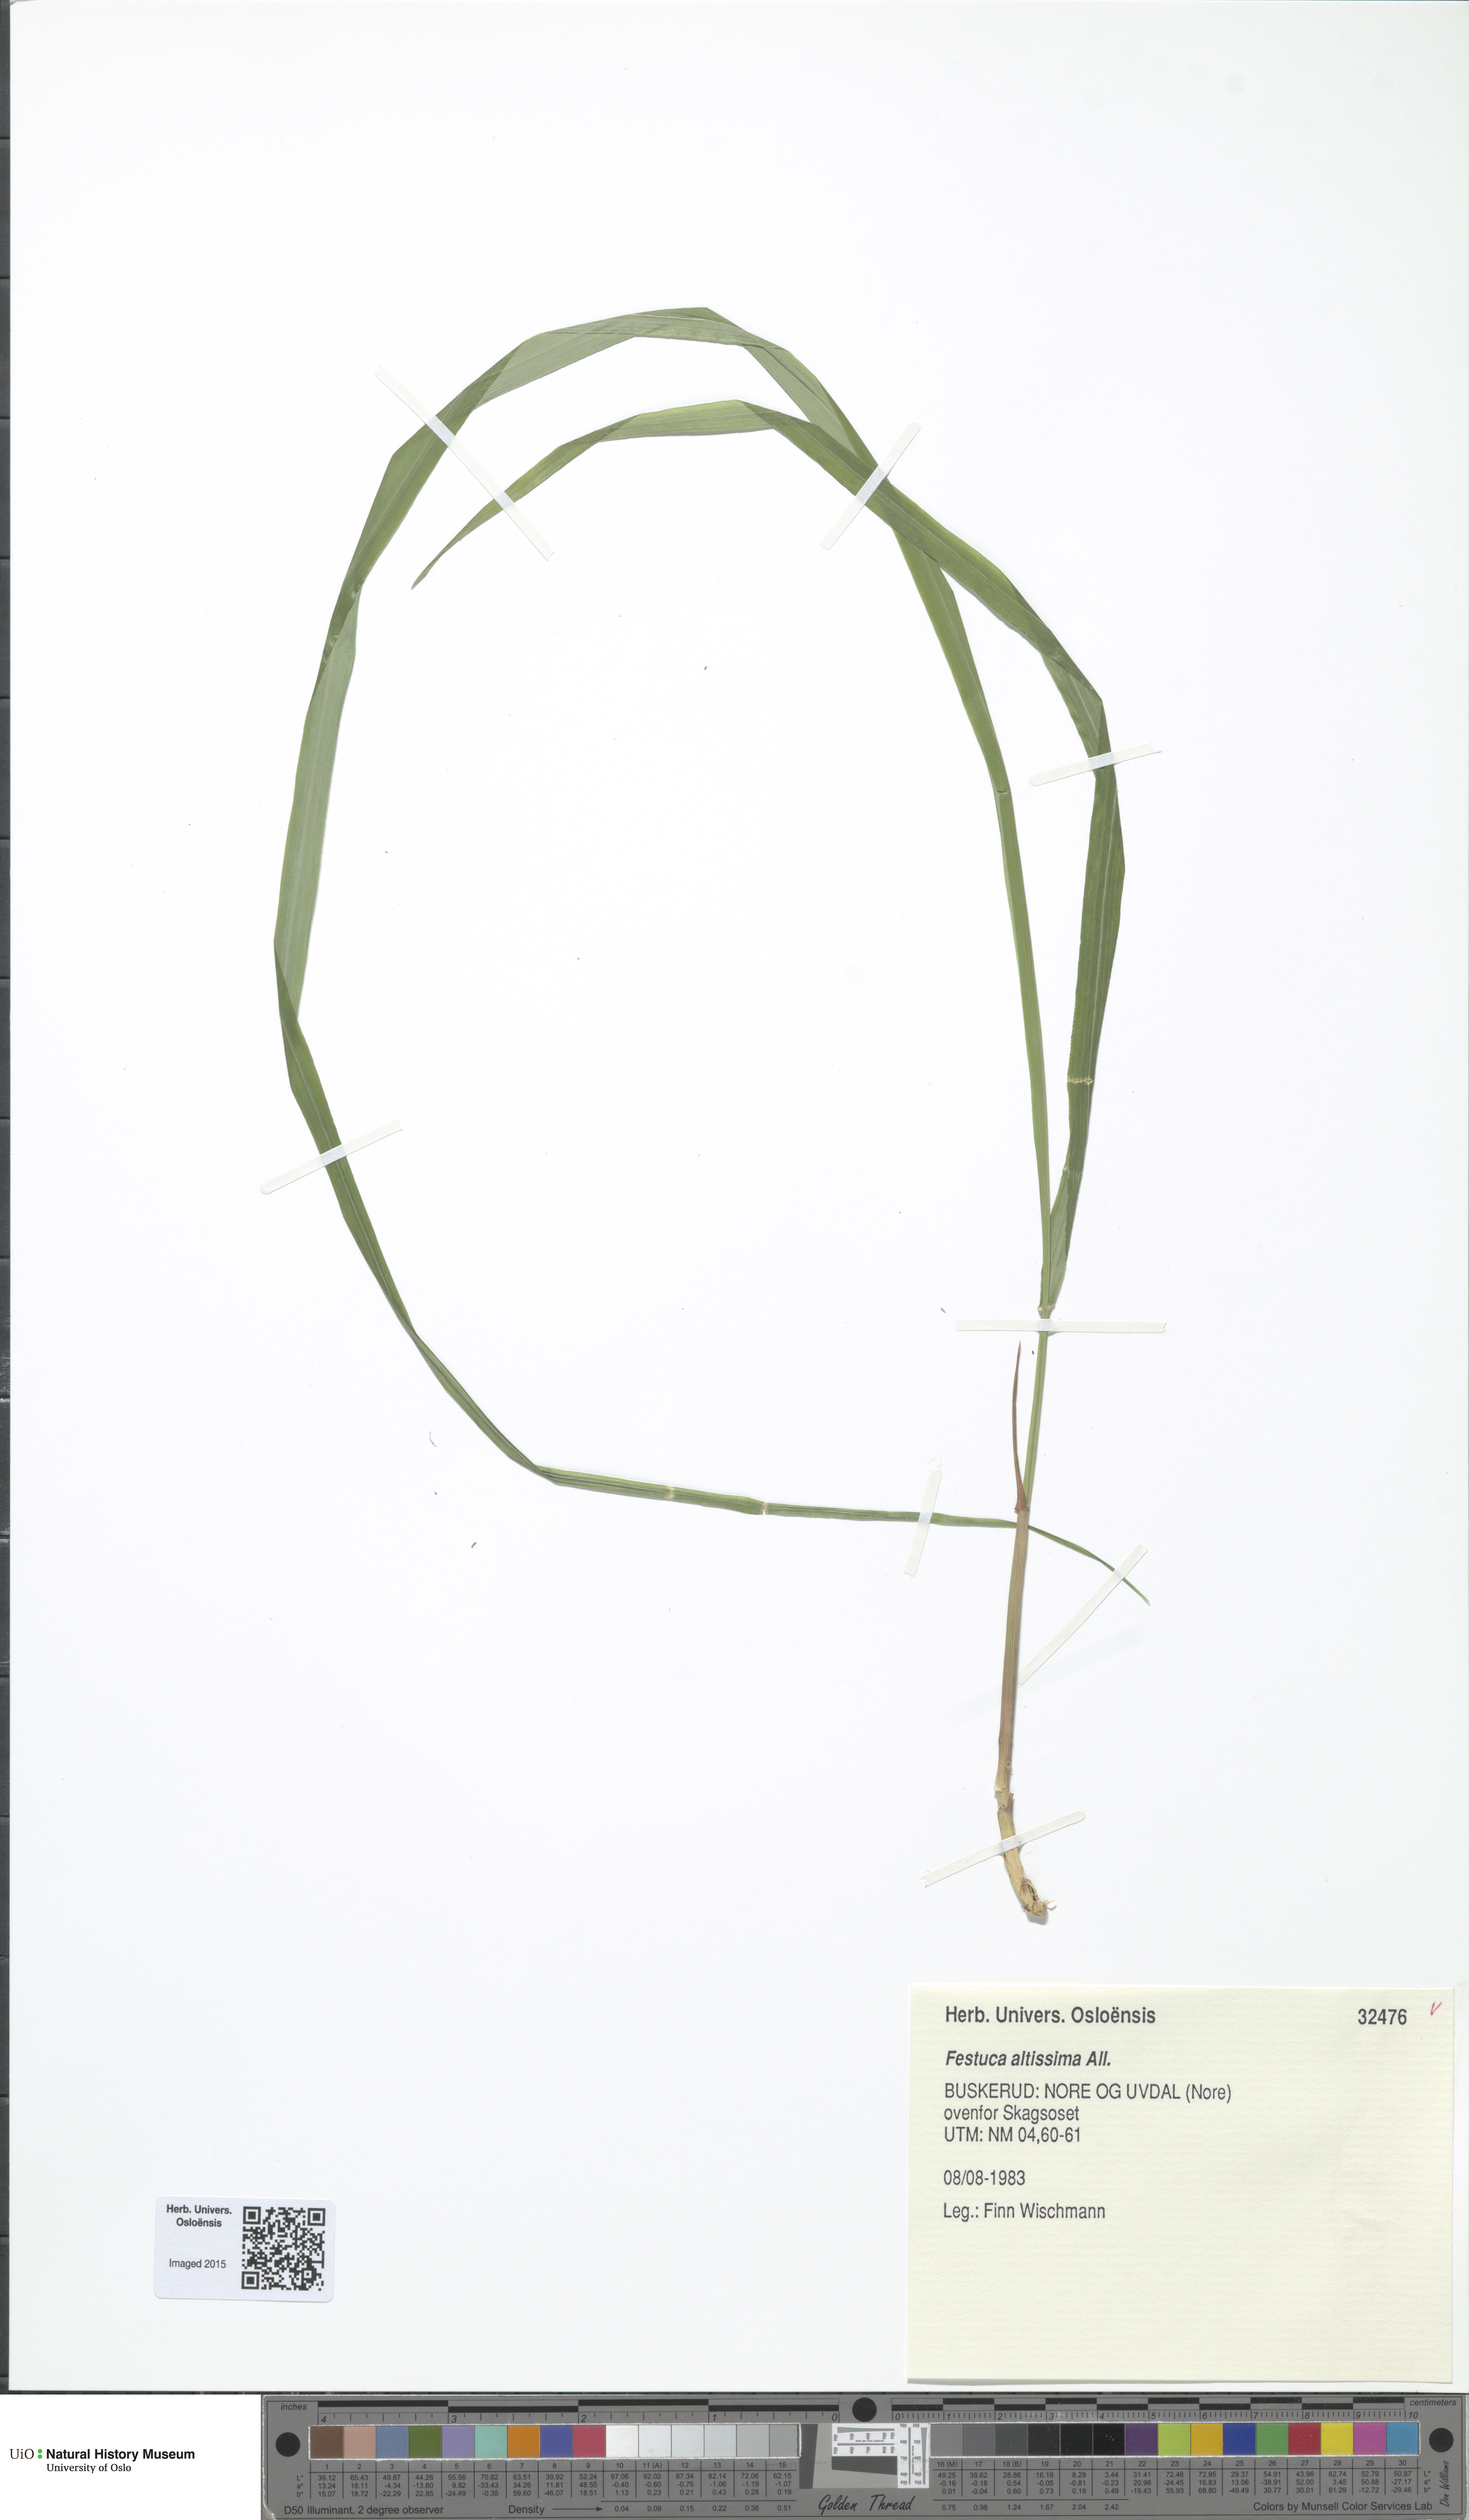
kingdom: Plantae
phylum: Tracheophyta
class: Liliopsida
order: Poales
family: Poaceae
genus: Festuca
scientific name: Festuca altissima
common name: Wood fescue
